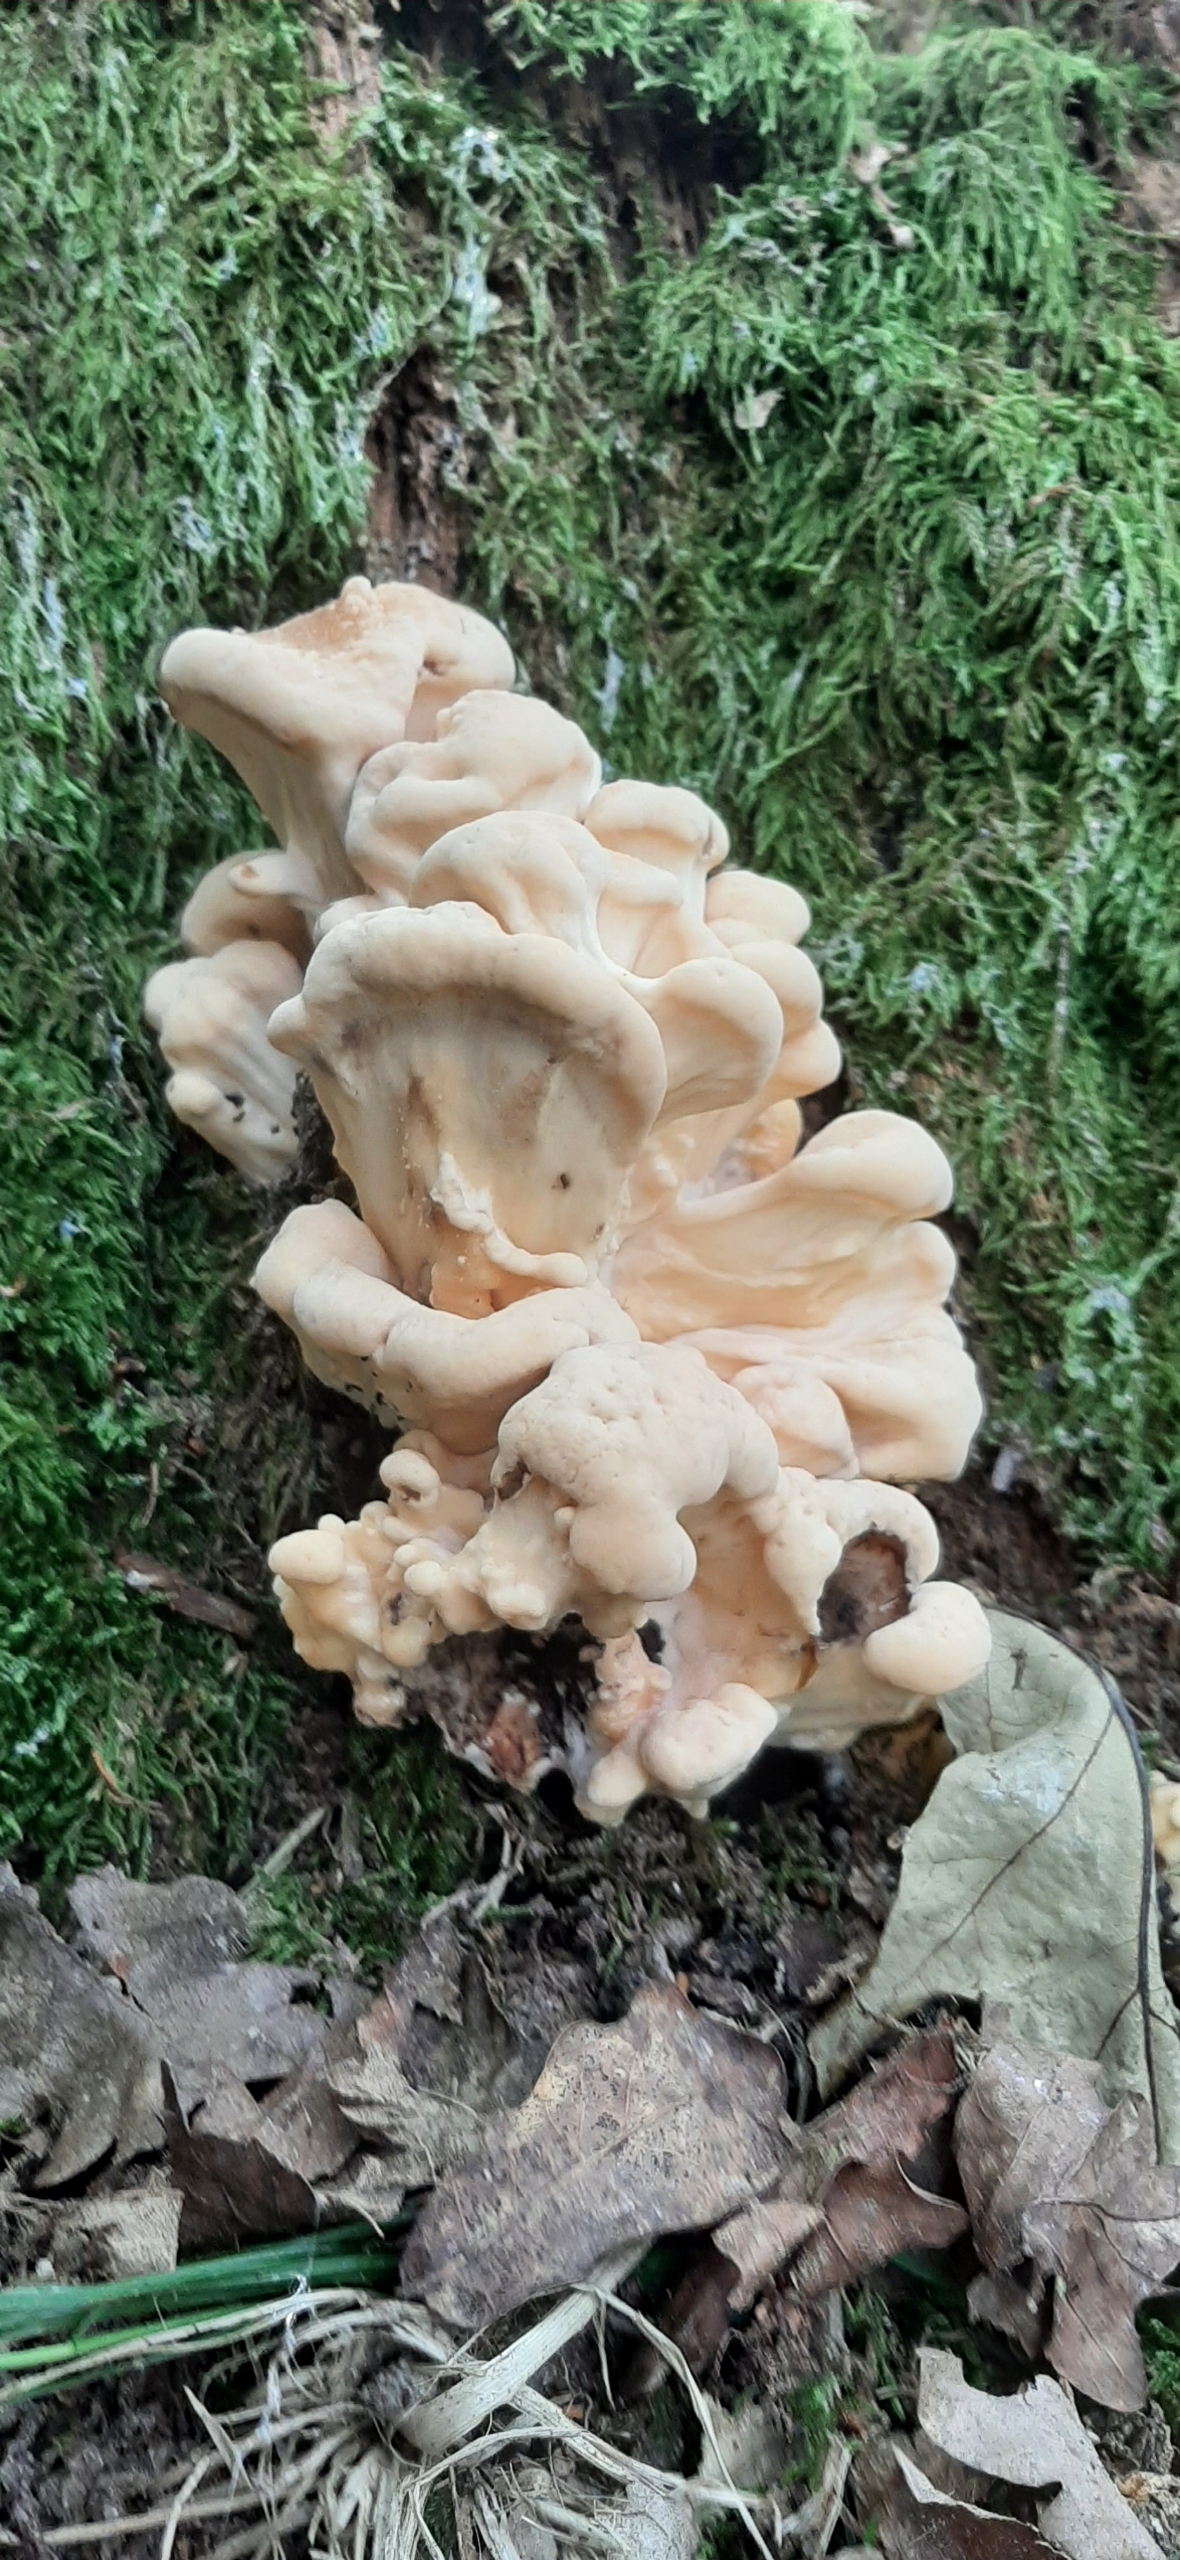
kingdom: Fungi
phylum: Basidiomycota
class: Agaricomycetes
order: Polyporales
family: Meripilaceae
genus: Meripilus
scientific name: Meripilus giganteus
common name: Kæmpeporesvamp
